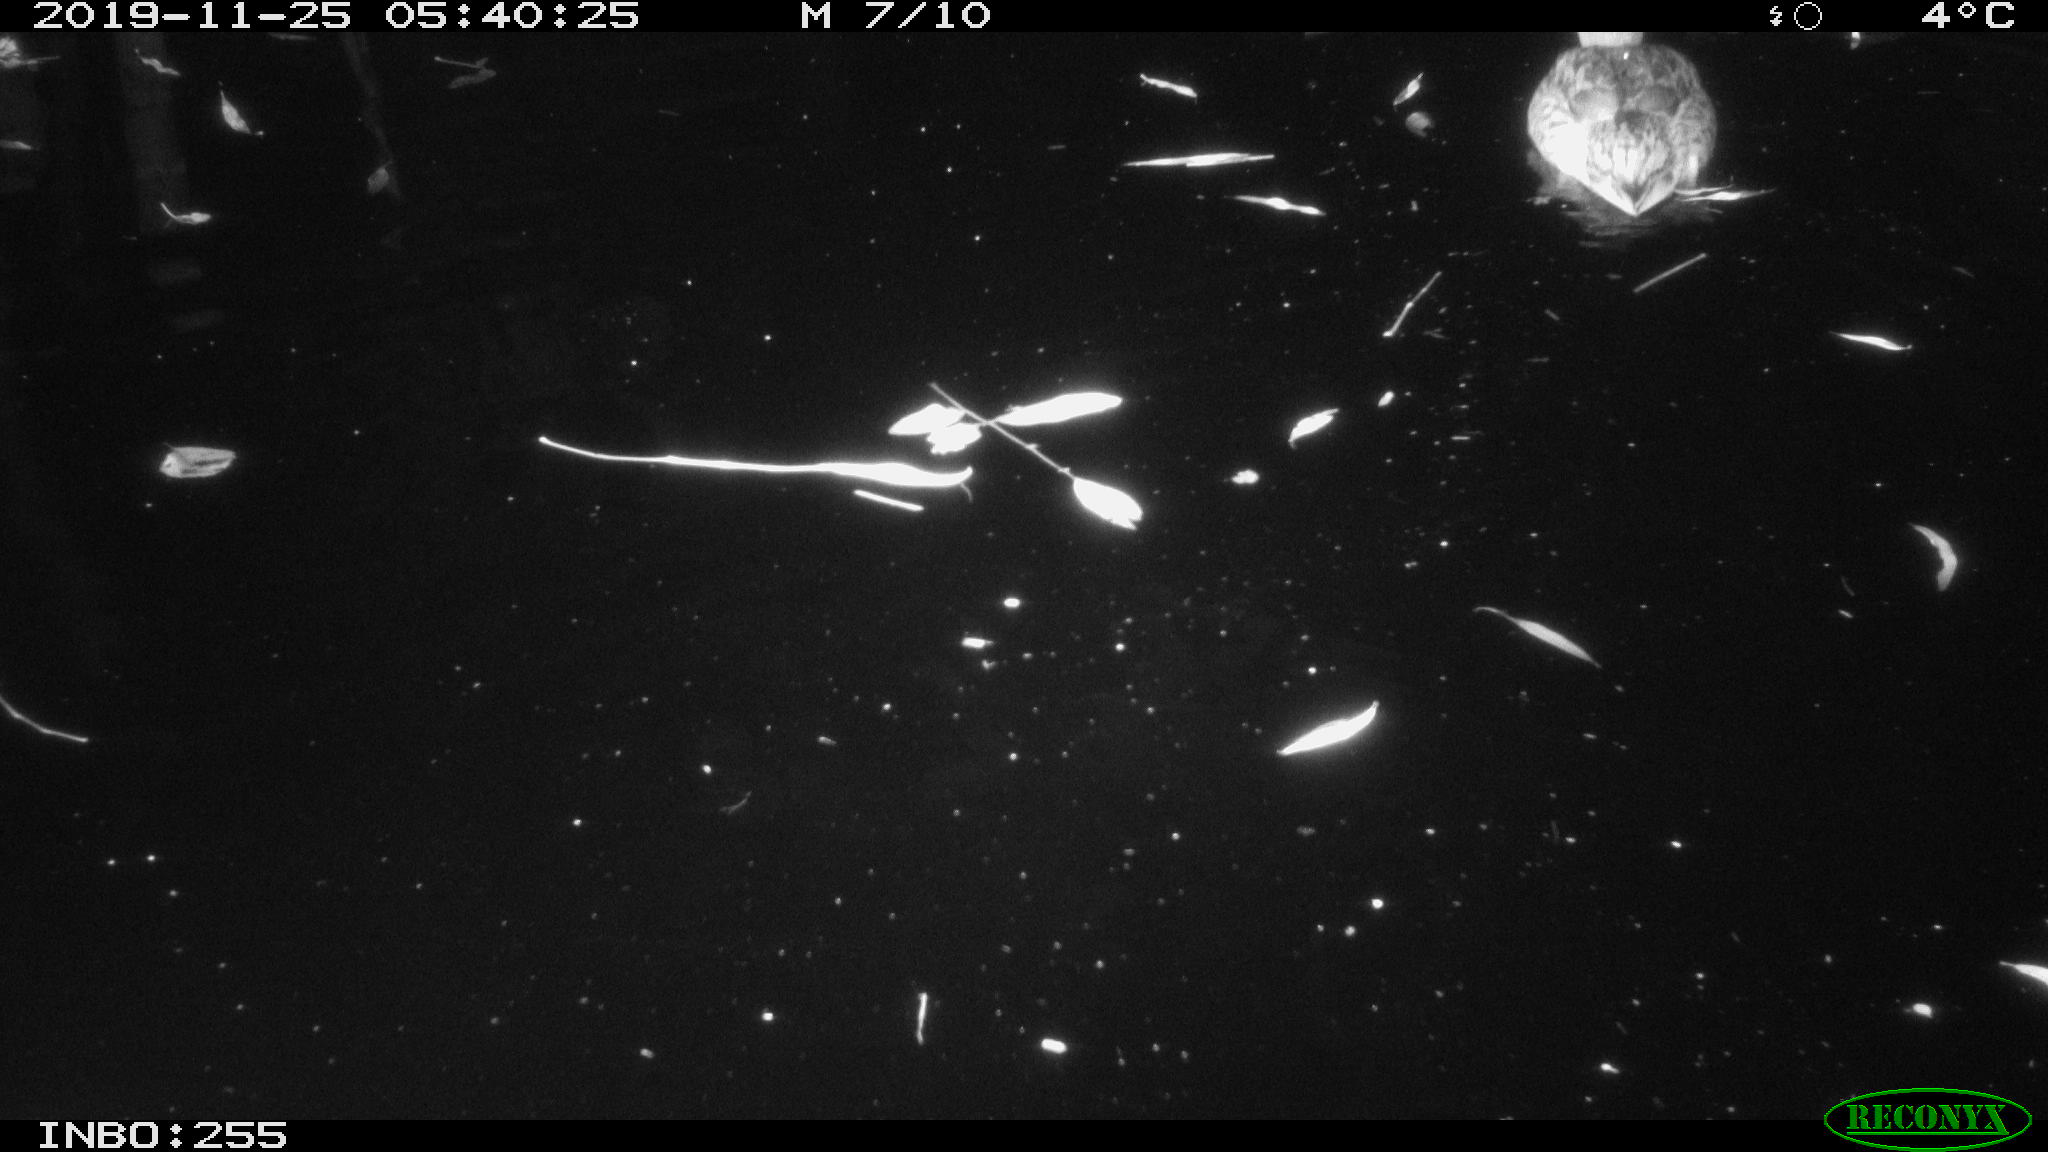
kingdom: Animalia
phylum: Chordata
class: Aves
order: Anseriformes
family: Anatidae
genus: Anas
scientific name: Anas platyrhynchos
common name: Mallard
